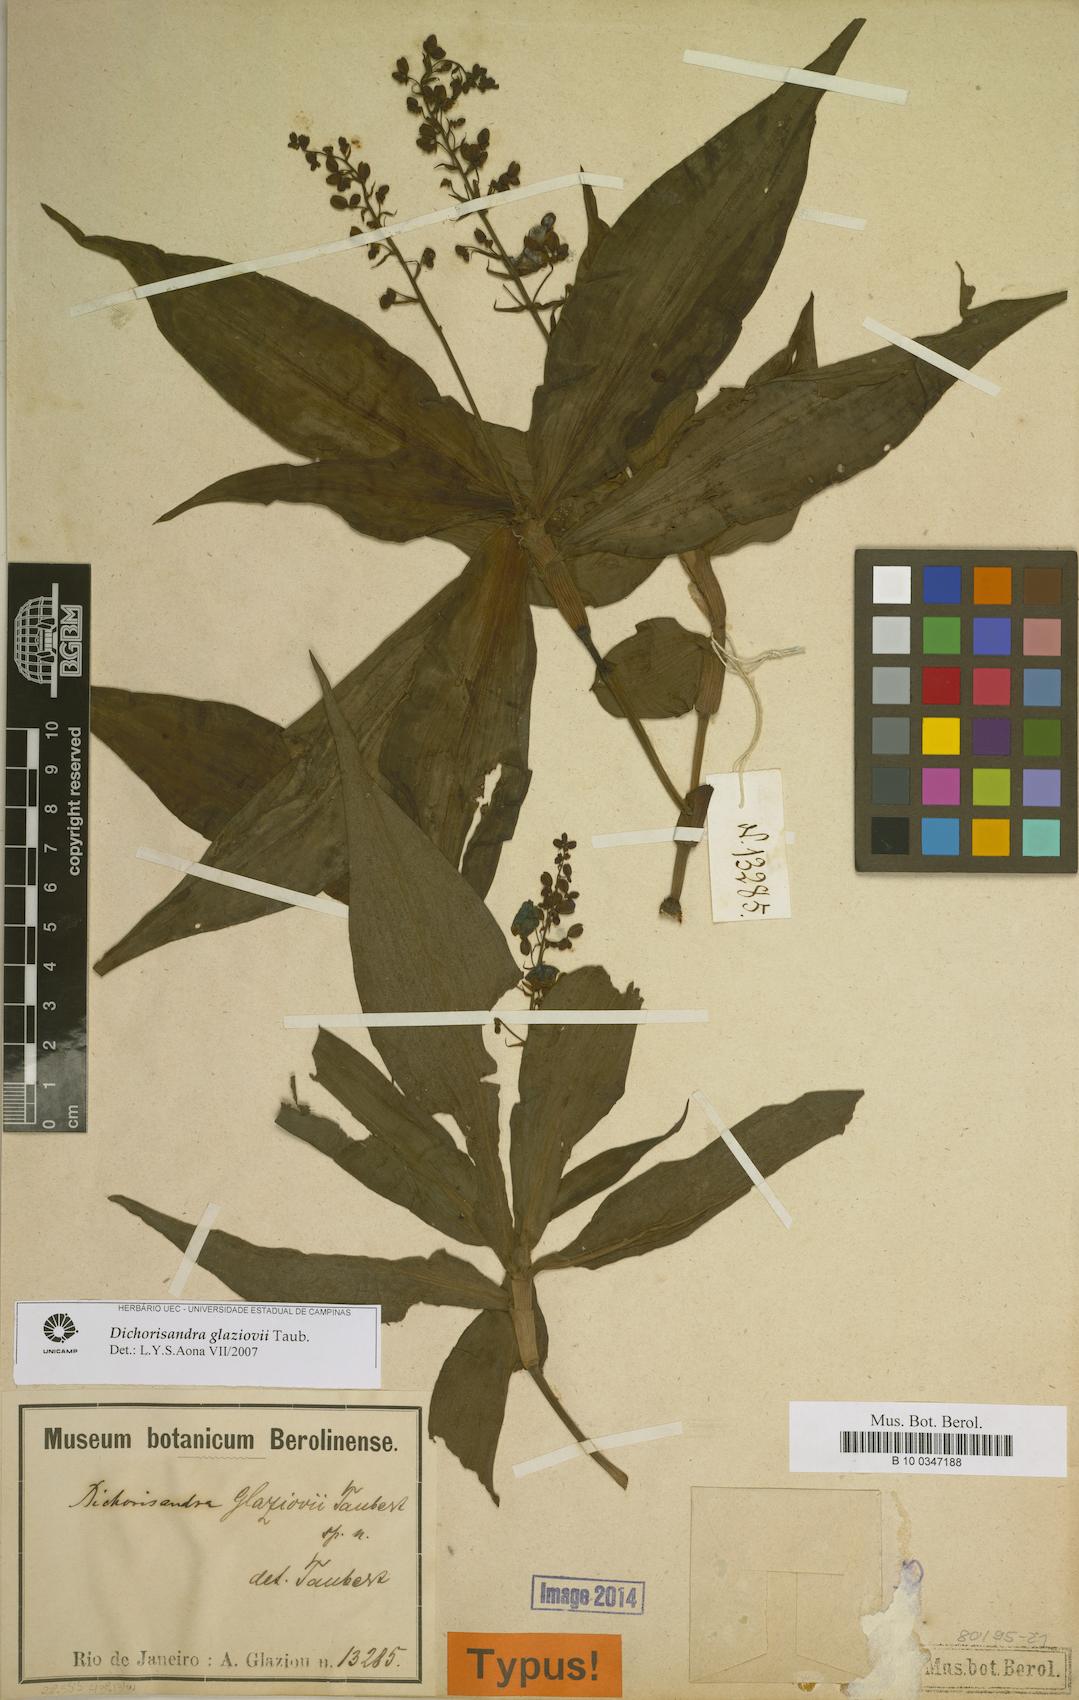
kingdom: Plantae
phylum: Tracheophyta
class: Liliopsida
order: Commelinales
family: Commelinaceae
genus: Dichorisandra
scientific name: Dichorisandra glaziovii
